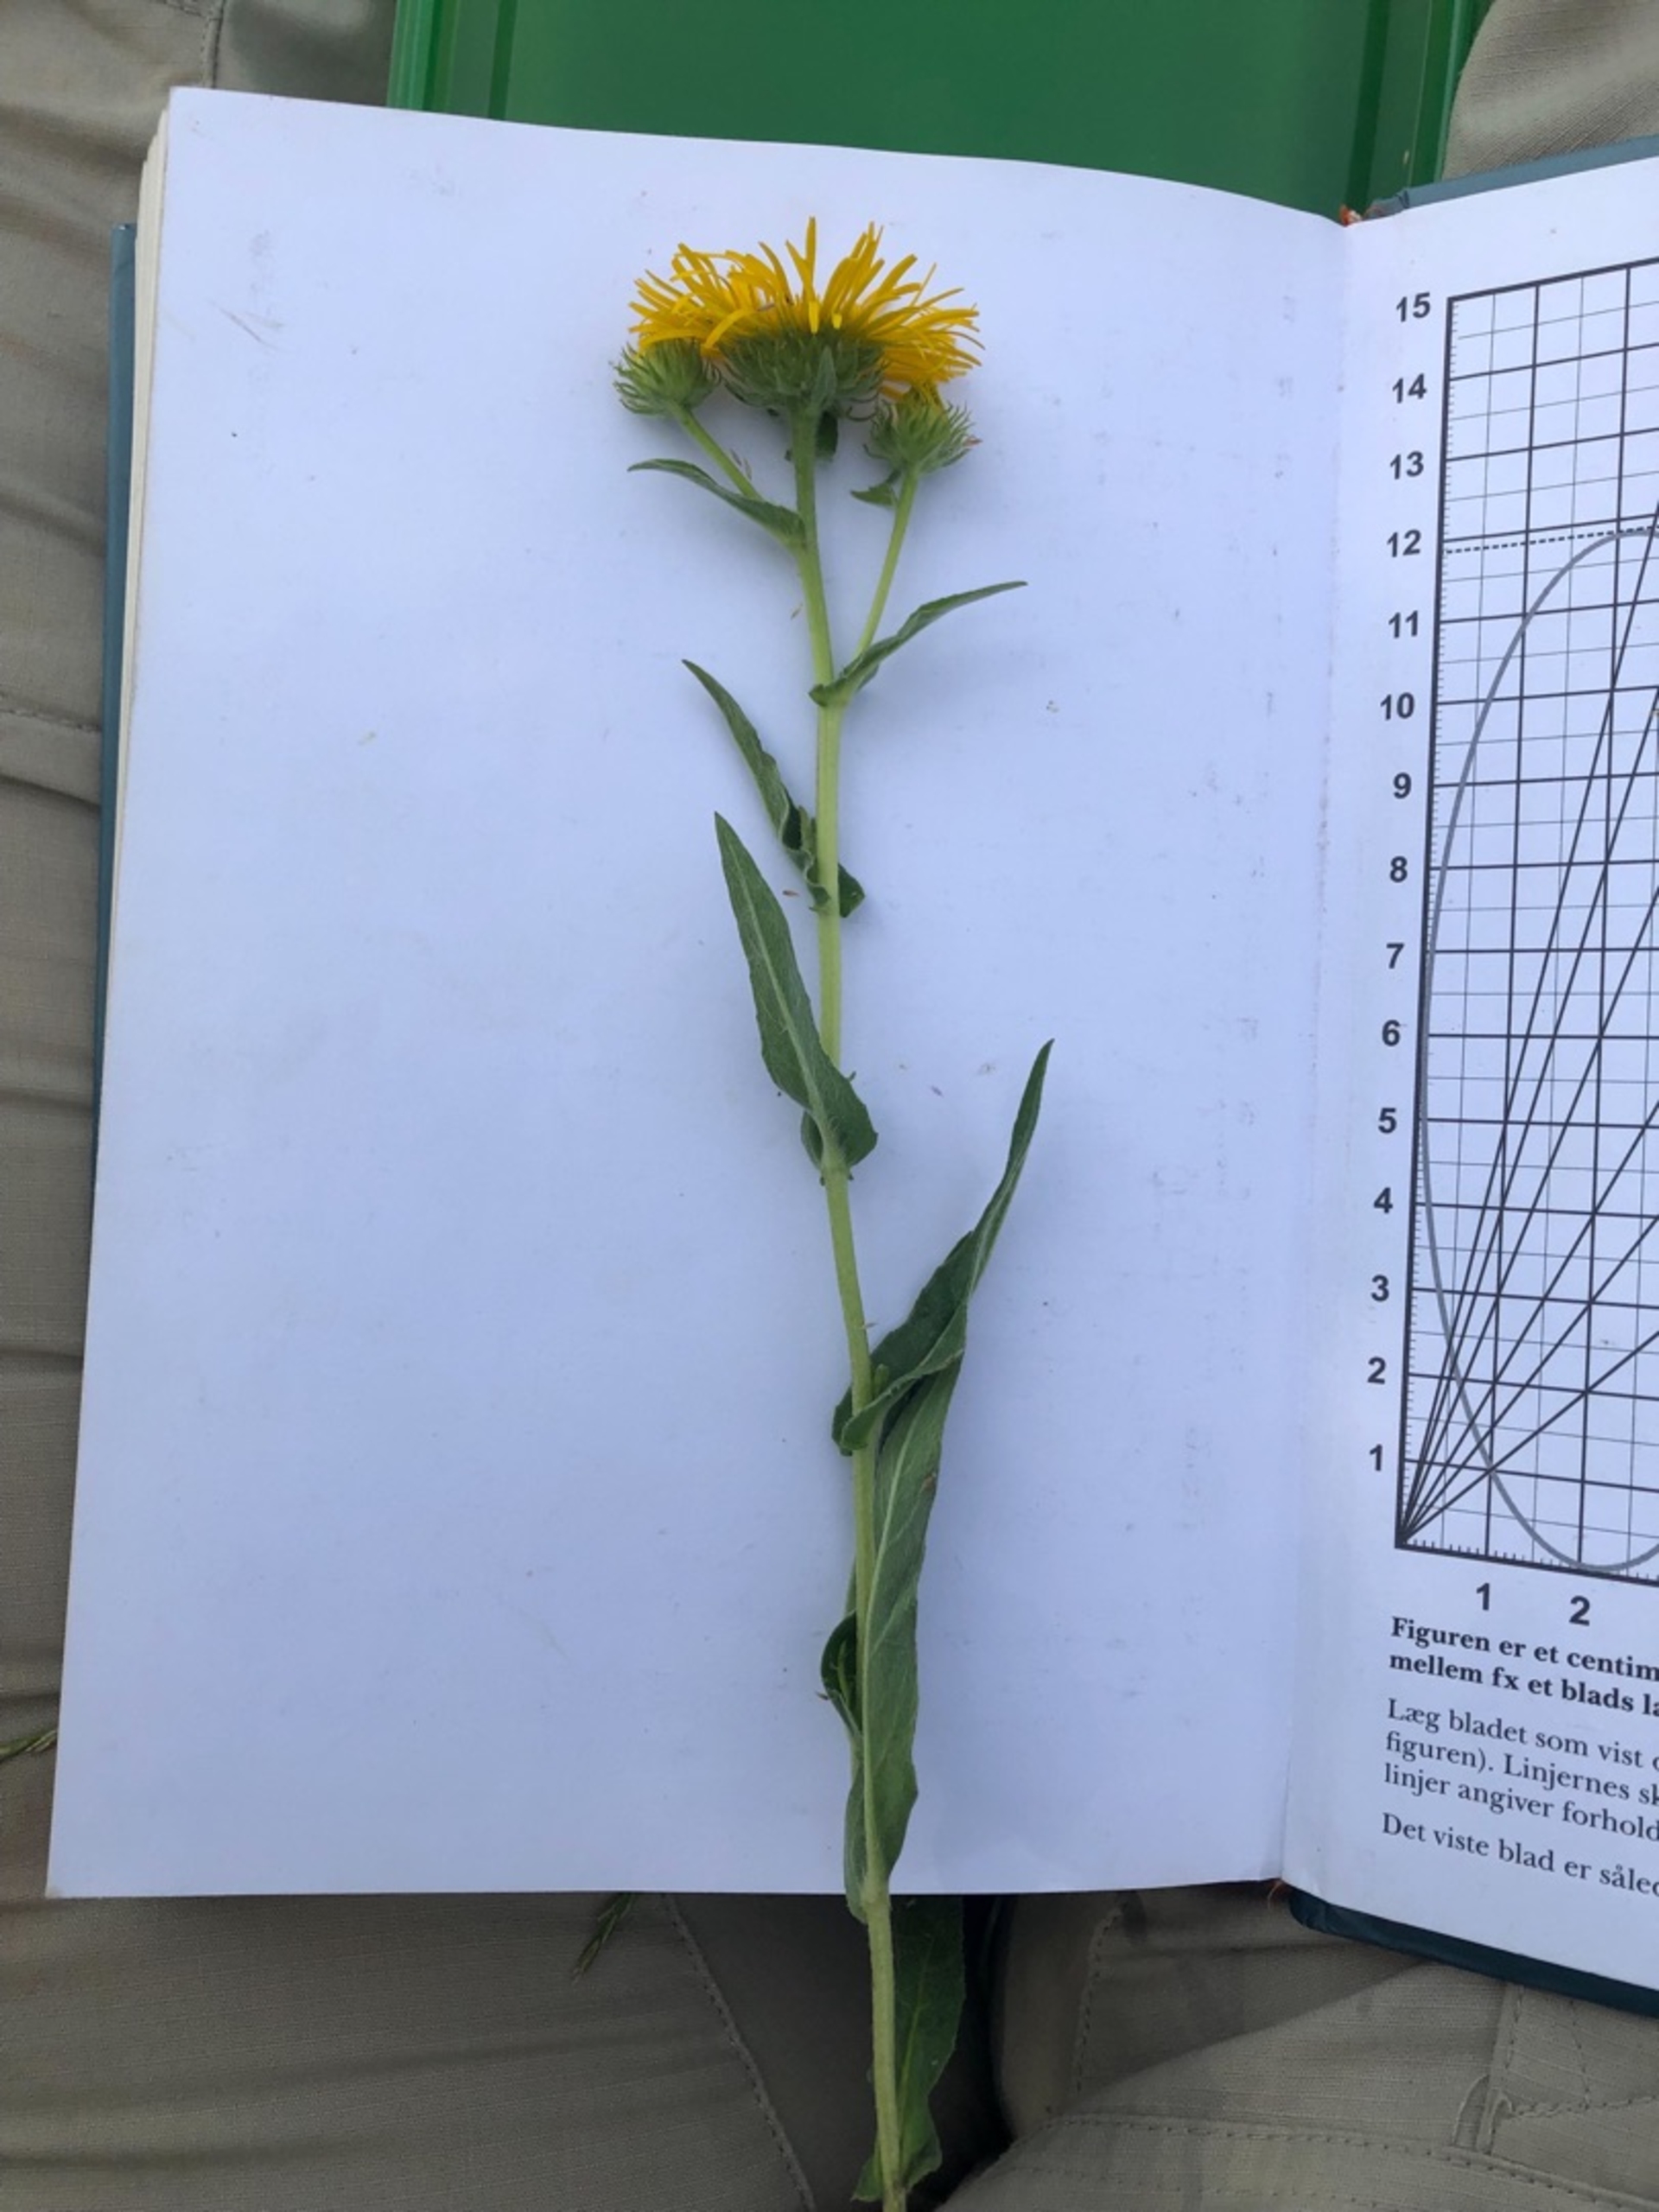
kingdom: Plantae
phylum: Tracheophyta
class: Magnoliopsida
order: Asterales
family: Asteraceae
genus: Pentanema
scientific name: Pentanema britannicum
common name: Soløje-alant
